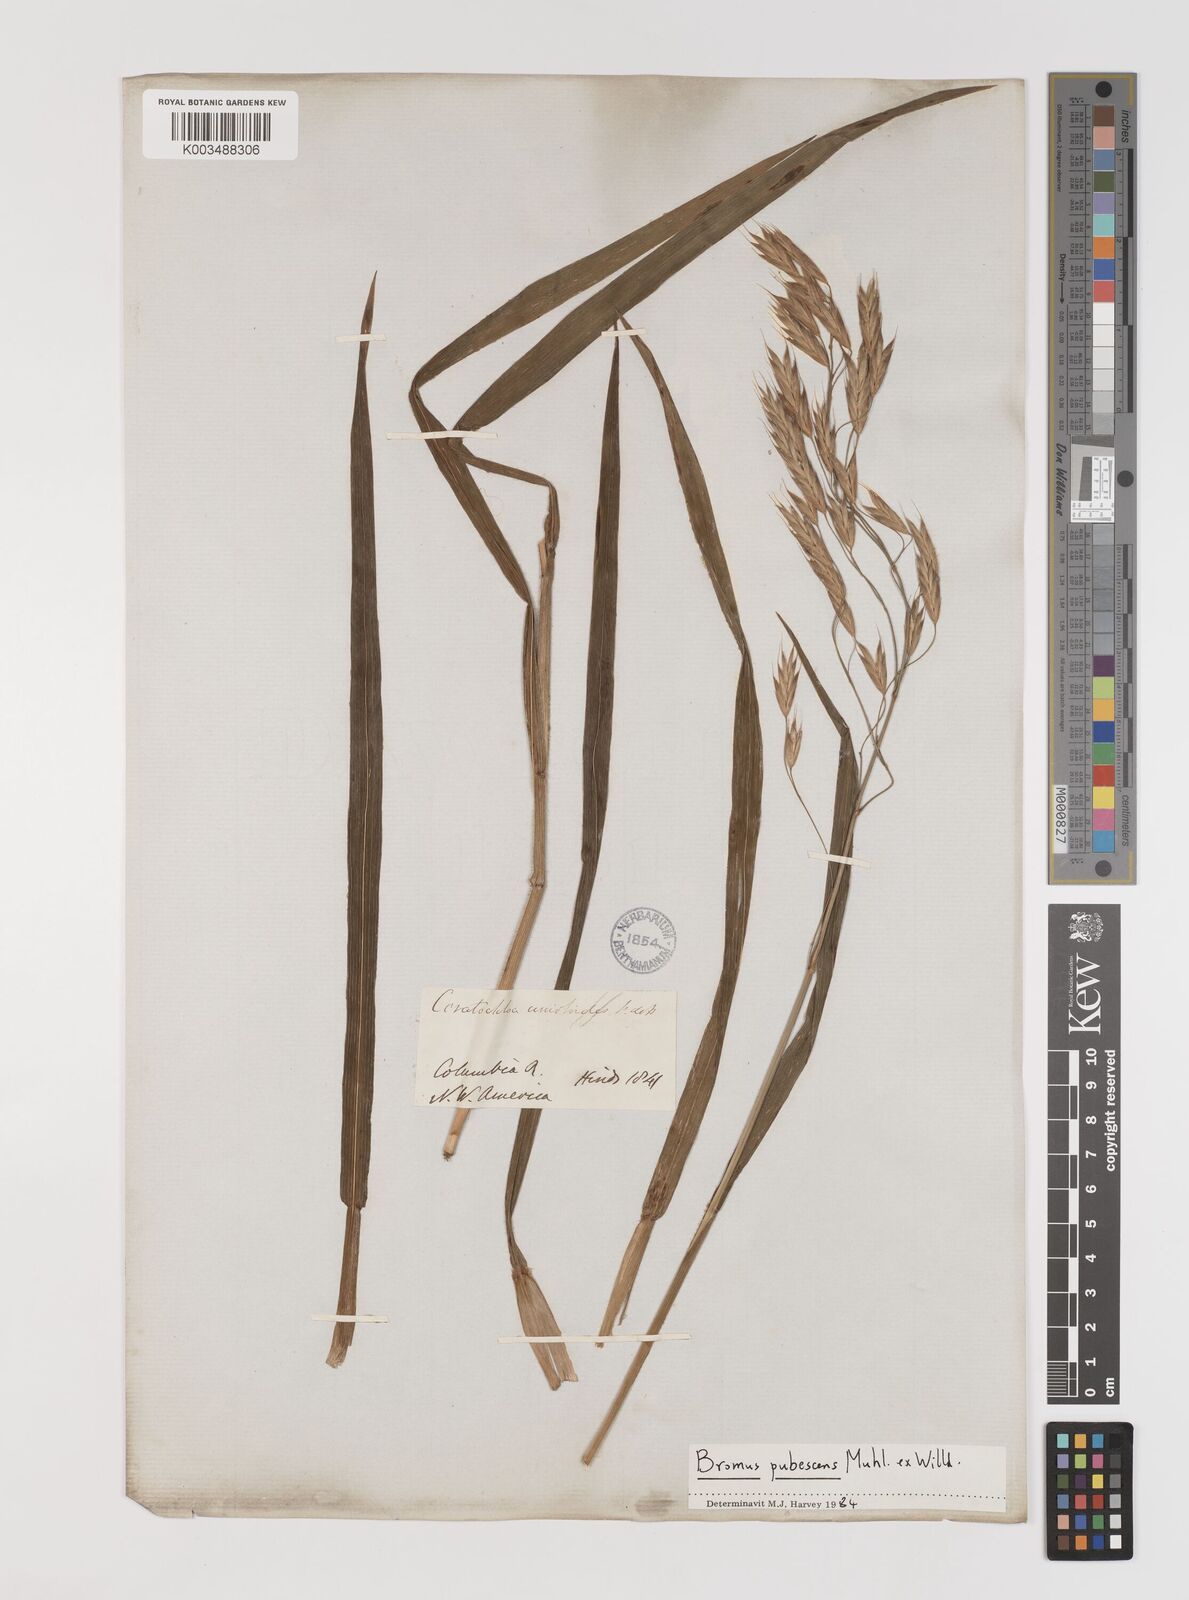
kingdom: Plantae
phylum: Tracheophyta
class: Liliopsida
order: Poales
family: Poaceae
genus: Bromus
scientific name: Bromus pubescens
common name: Hairy wood brome grass
